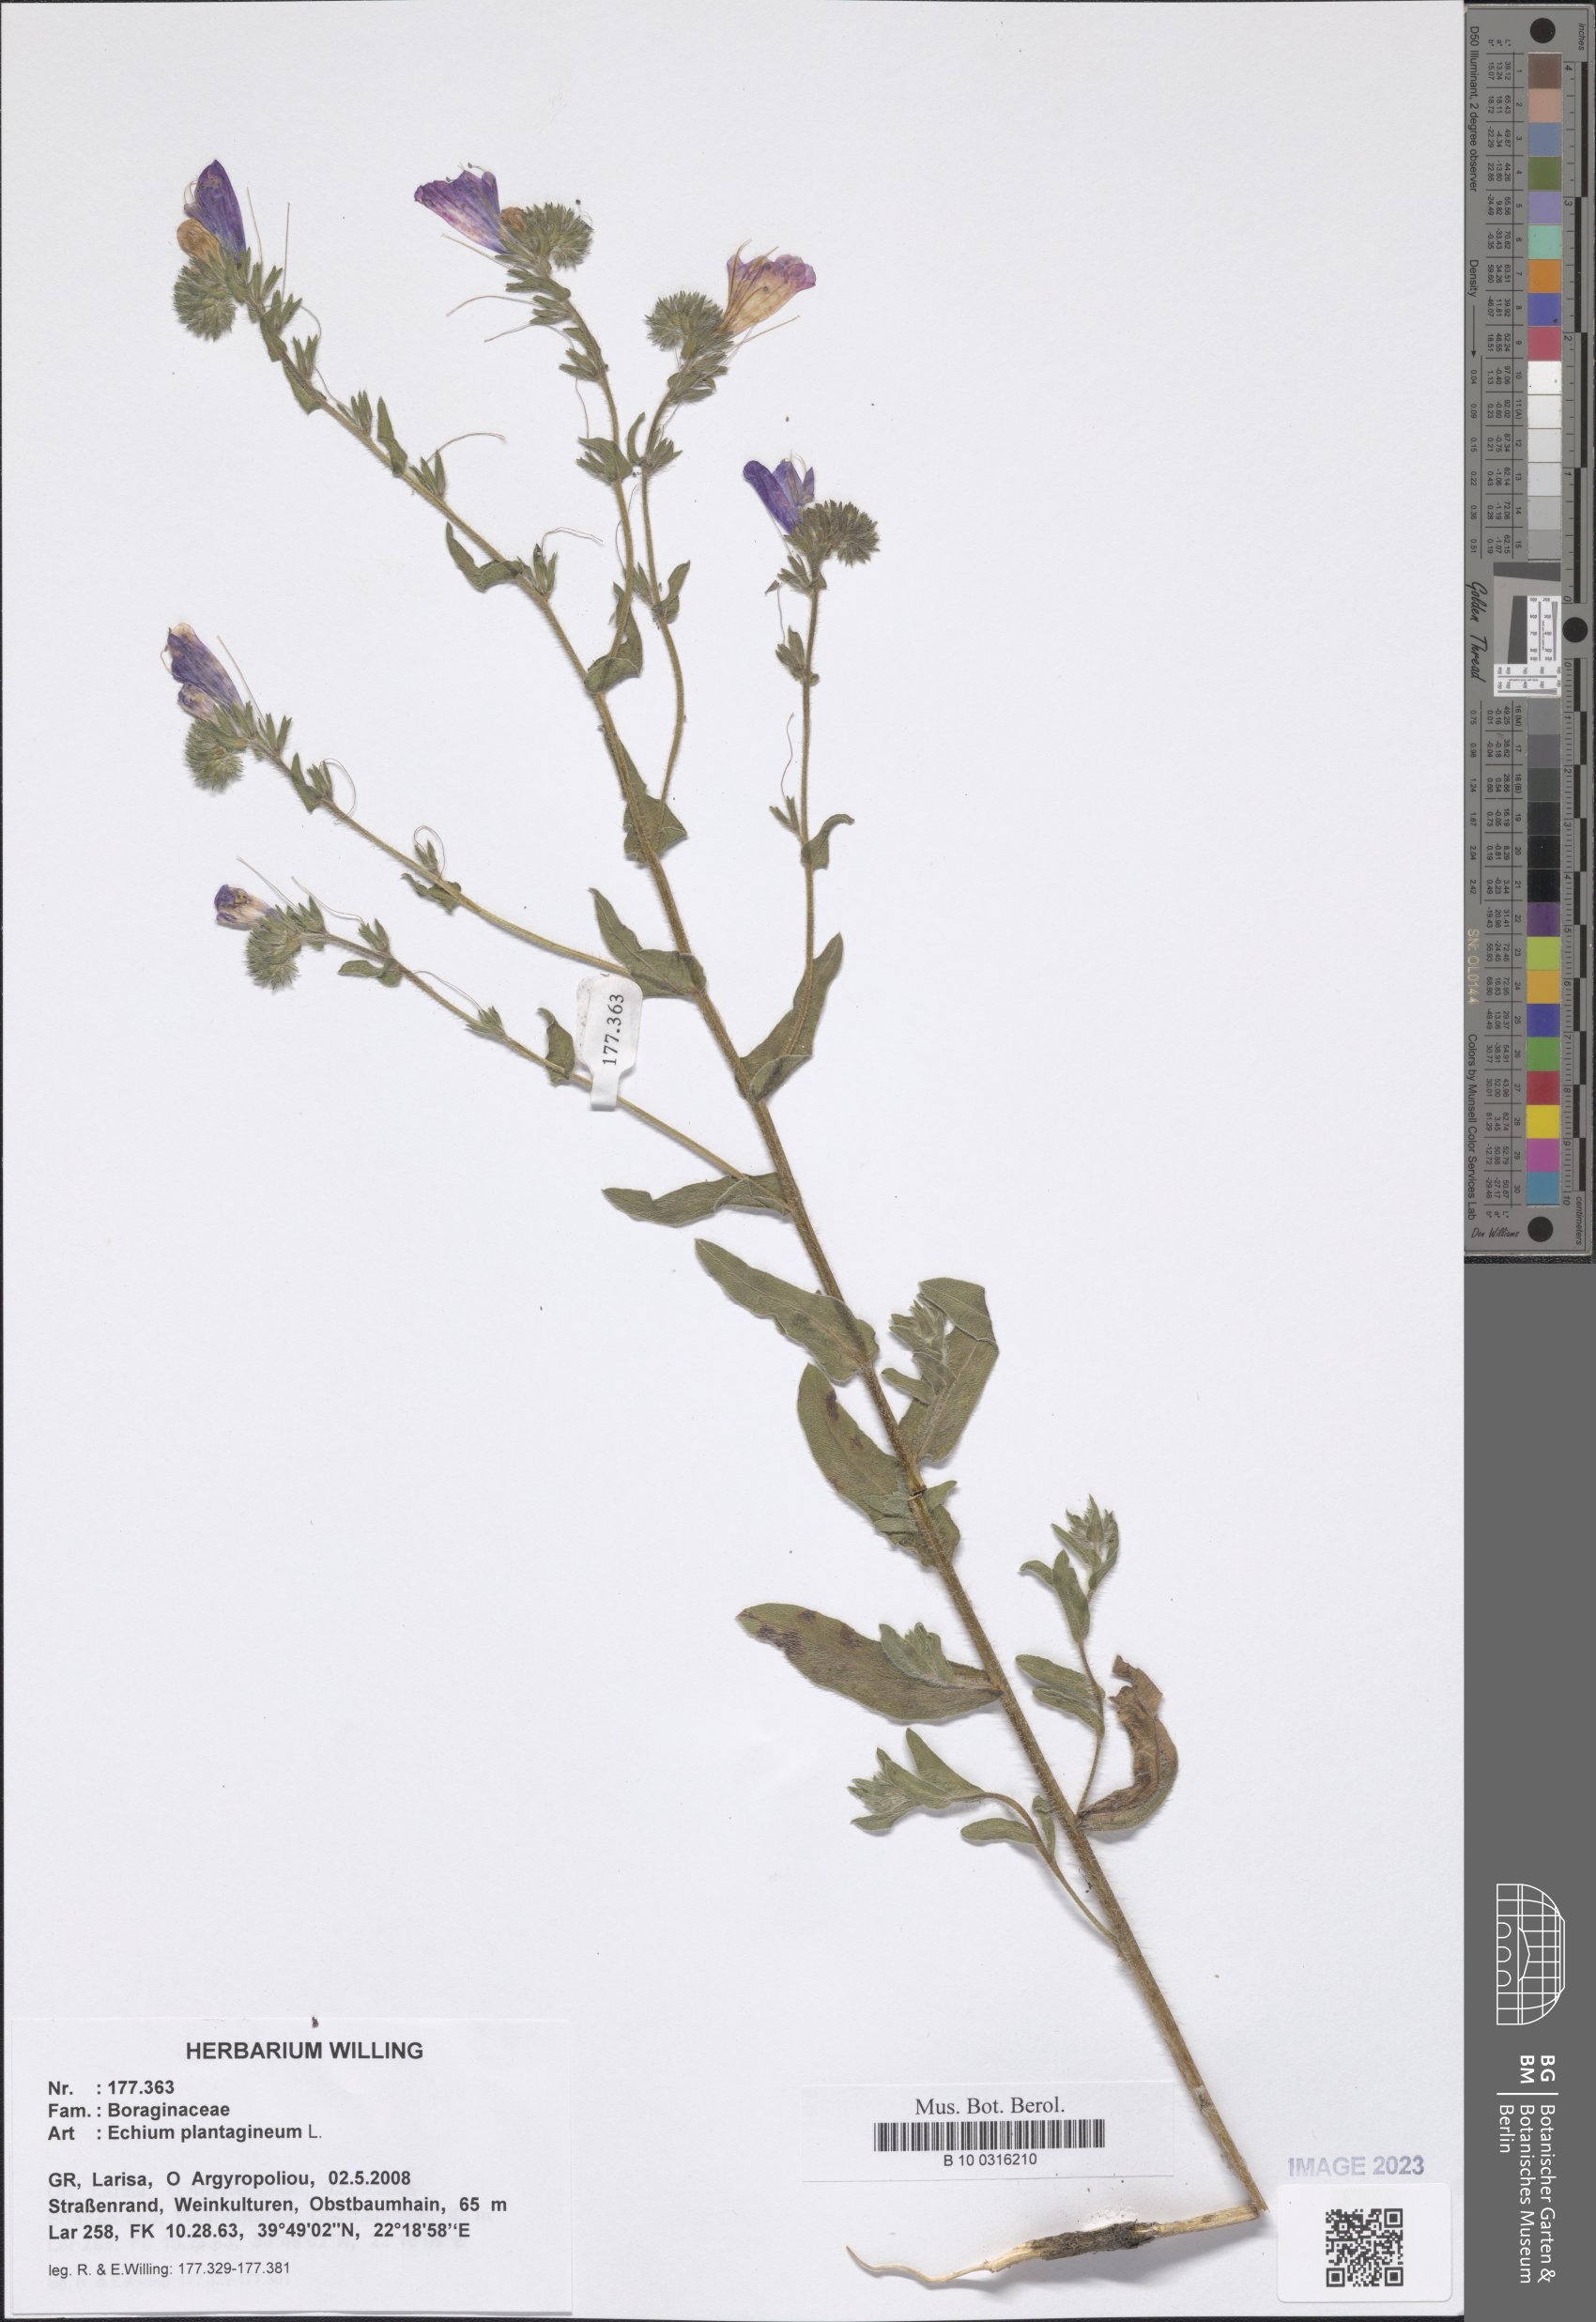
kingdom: Plantae
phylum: Tracheophyta
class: Magnoliopsida
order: Boraginales
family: Boraginaceae
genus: Echium
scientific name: Echium plantagineum
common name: Purple viper's-bugloss
